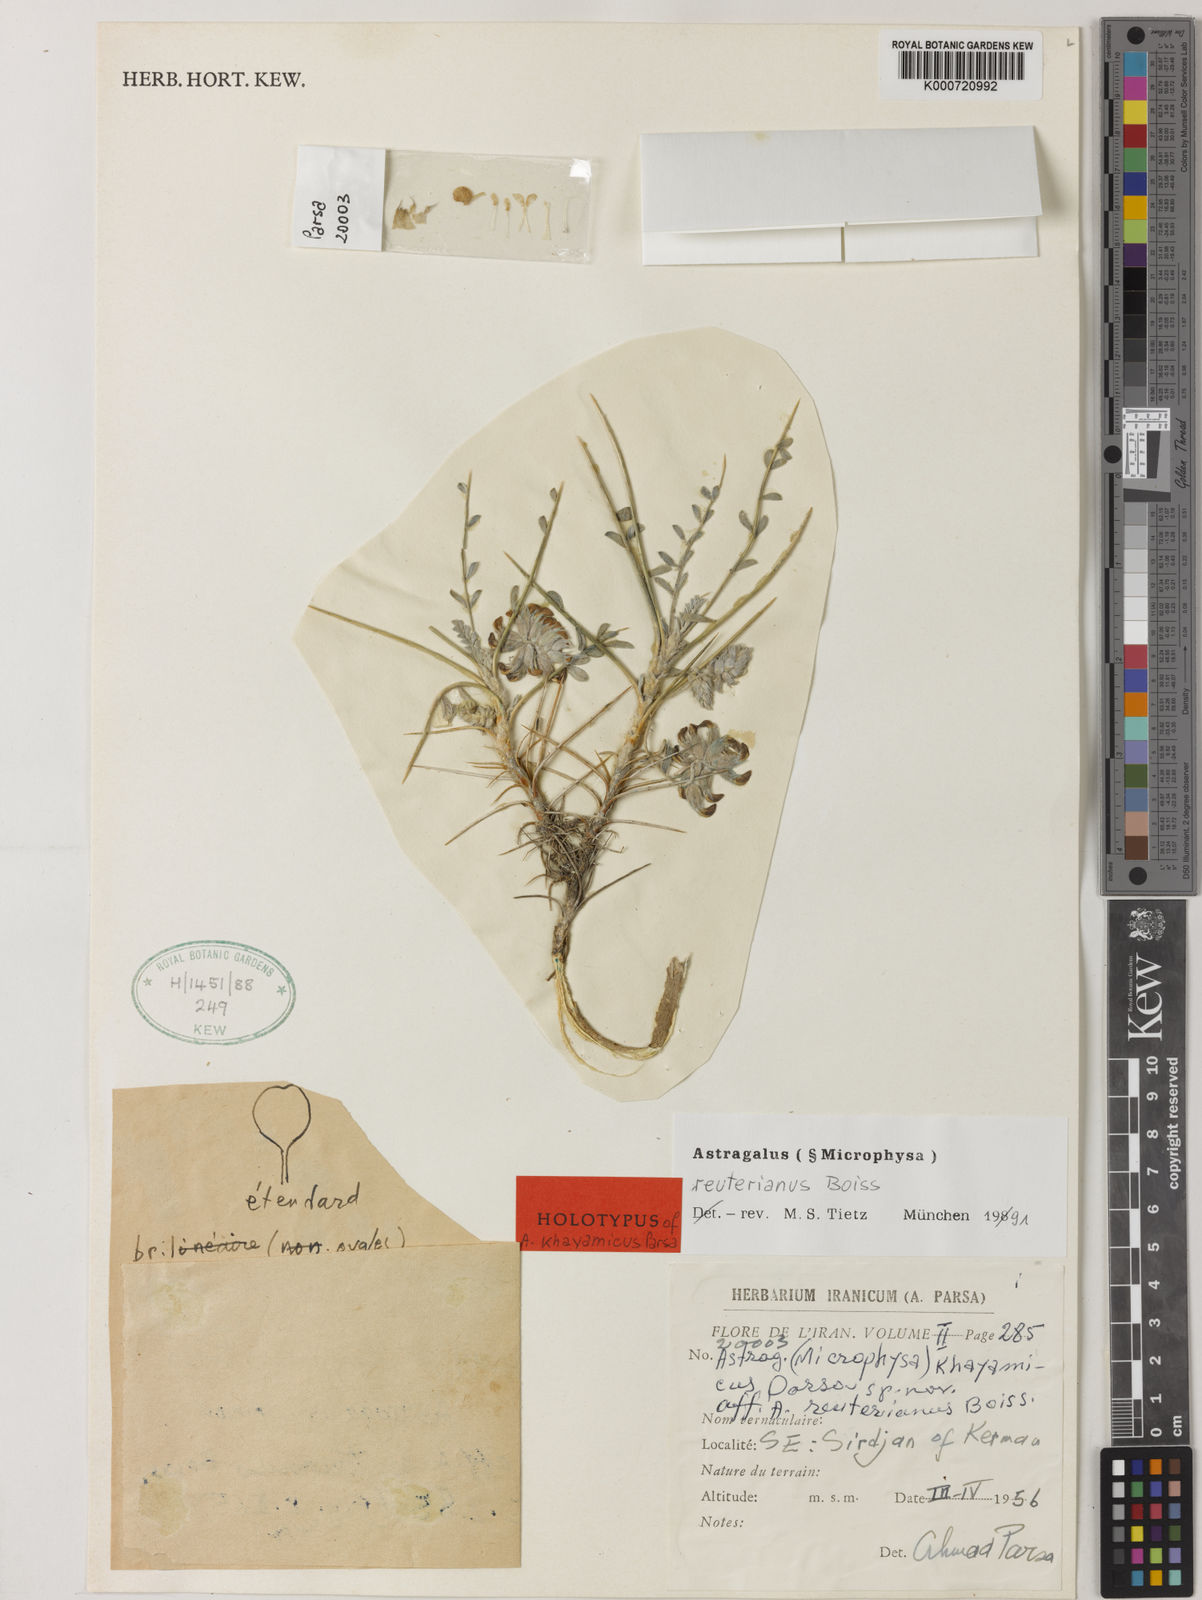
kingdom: Plantae
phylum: Tracheophyta
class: Magnoliopsida
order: Fabales
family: Fabaceae
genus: Astragalus
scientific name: Astragalus reuterianus
